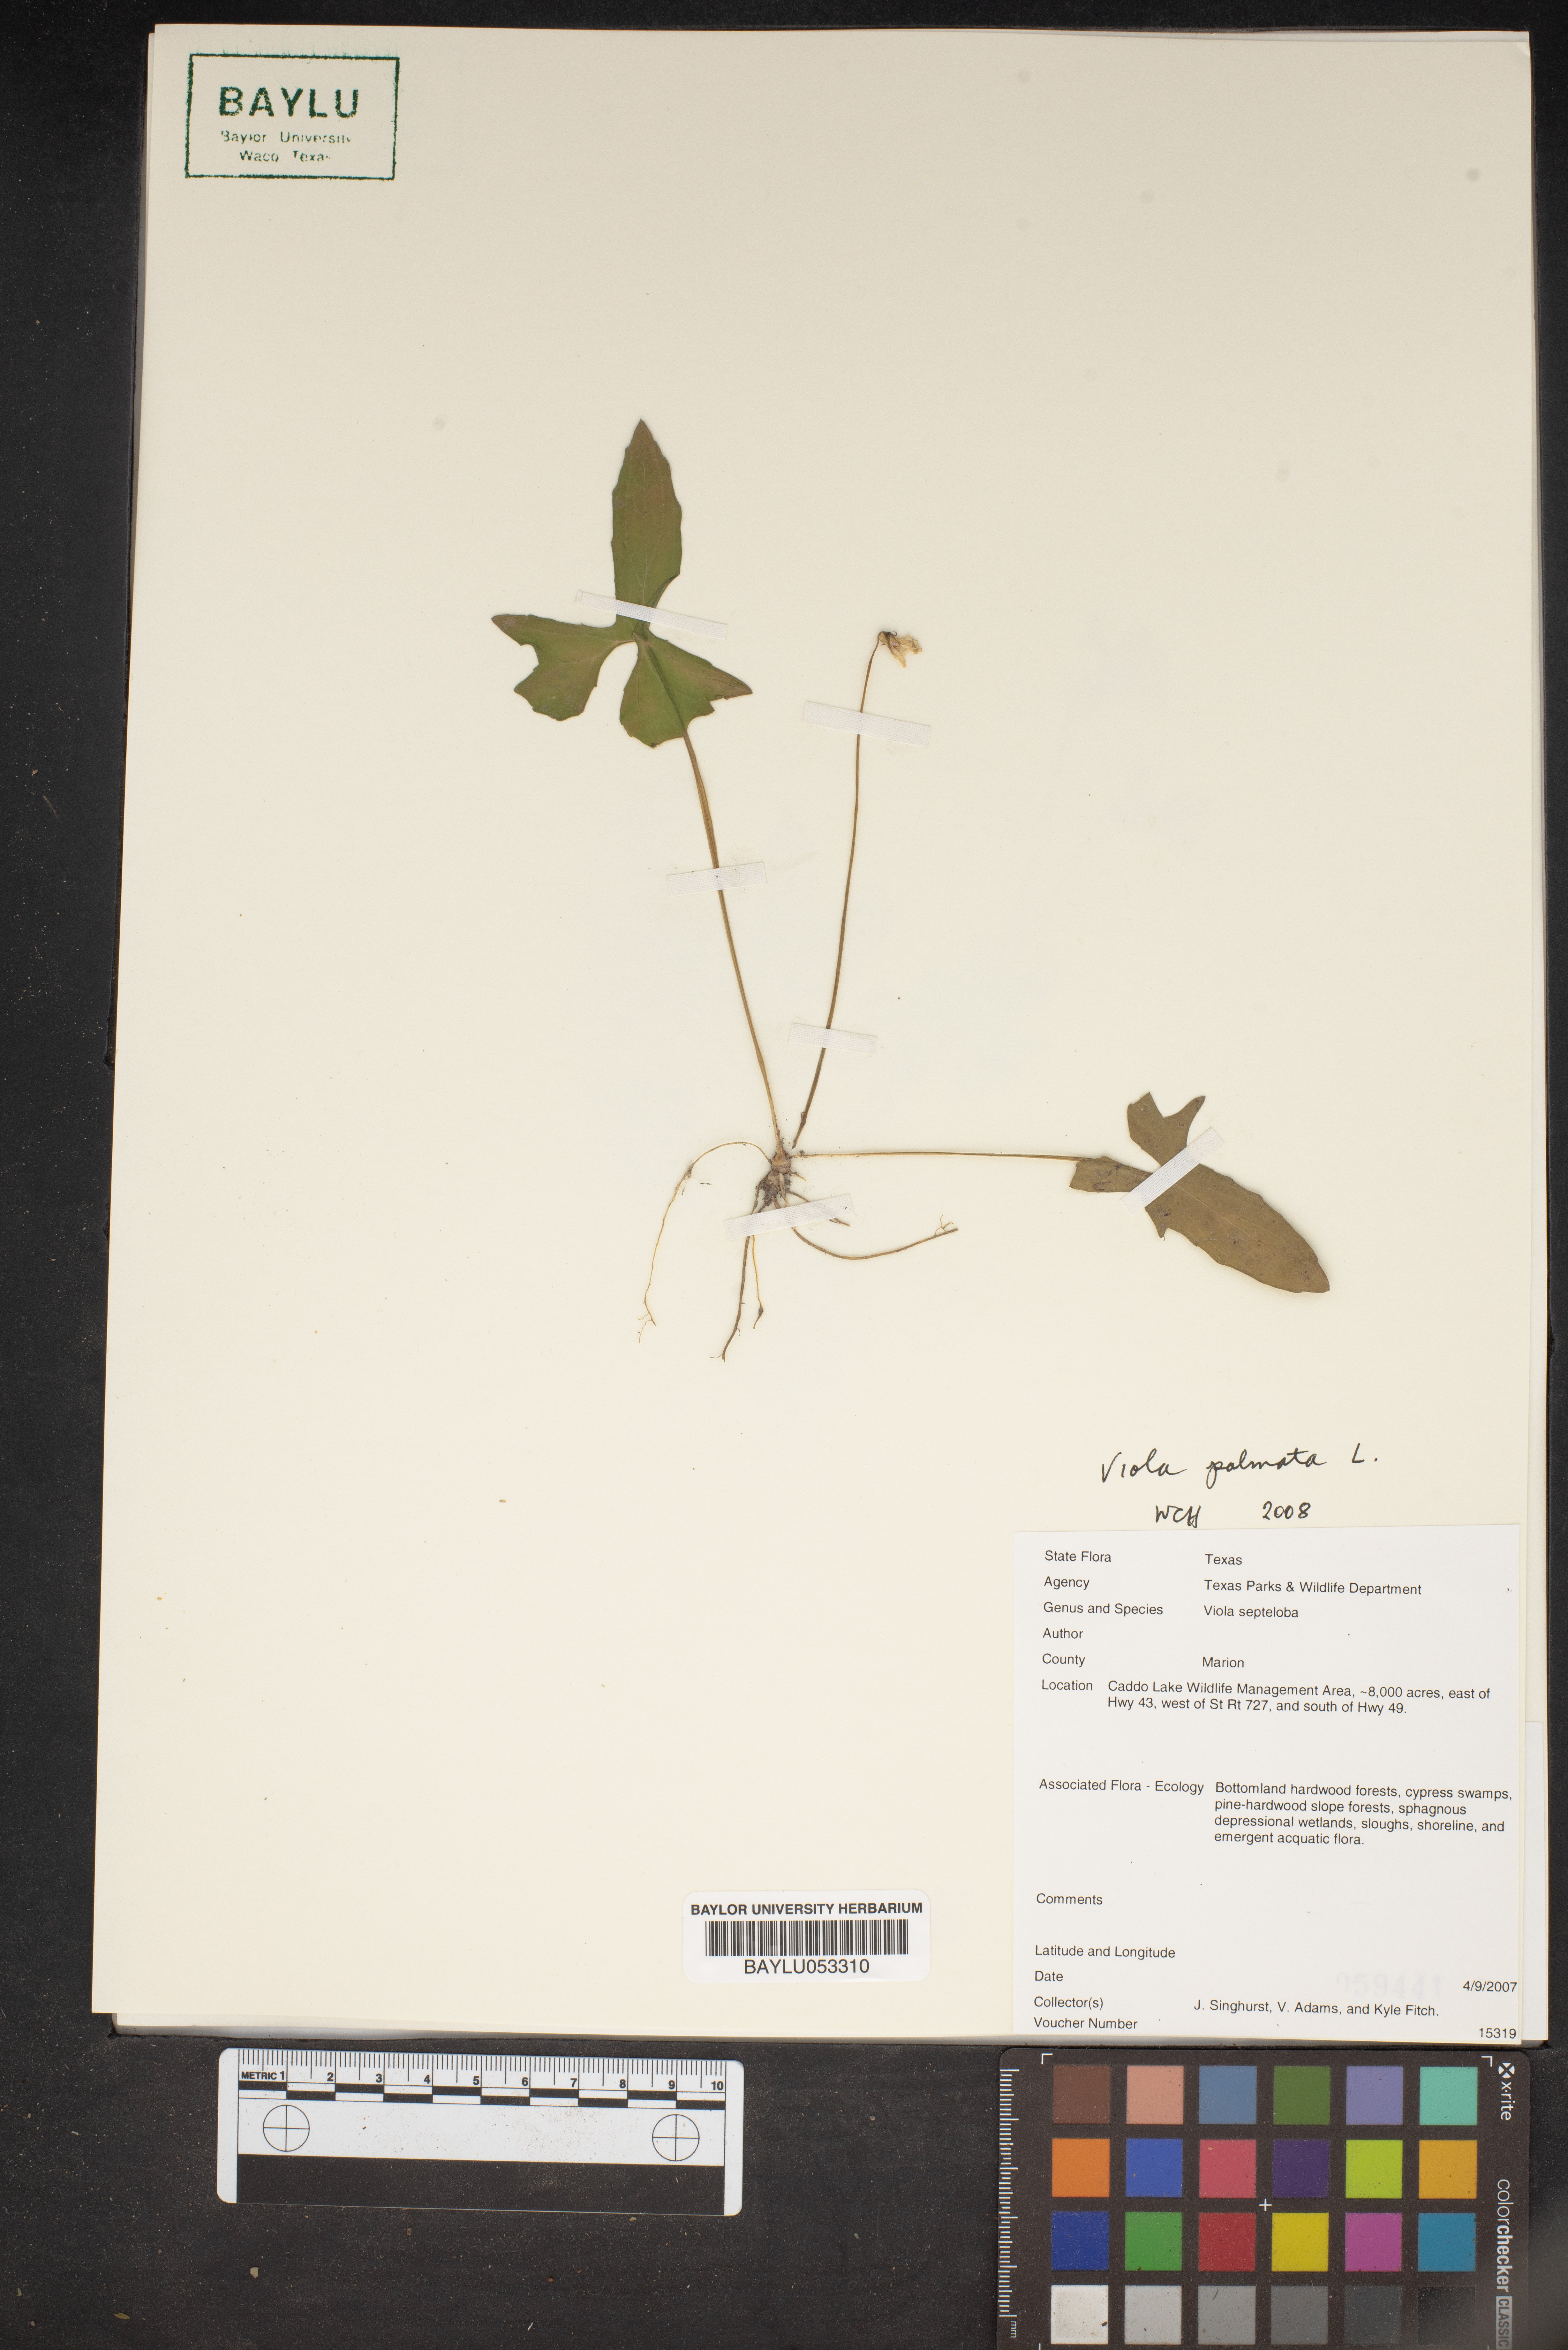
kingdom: Plantae
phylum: Tracheophyta
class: Magnoliopsida
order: Malpighiales
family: Violaceae
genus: Viola
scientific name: Viola septemloba
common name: Southern coast violet
